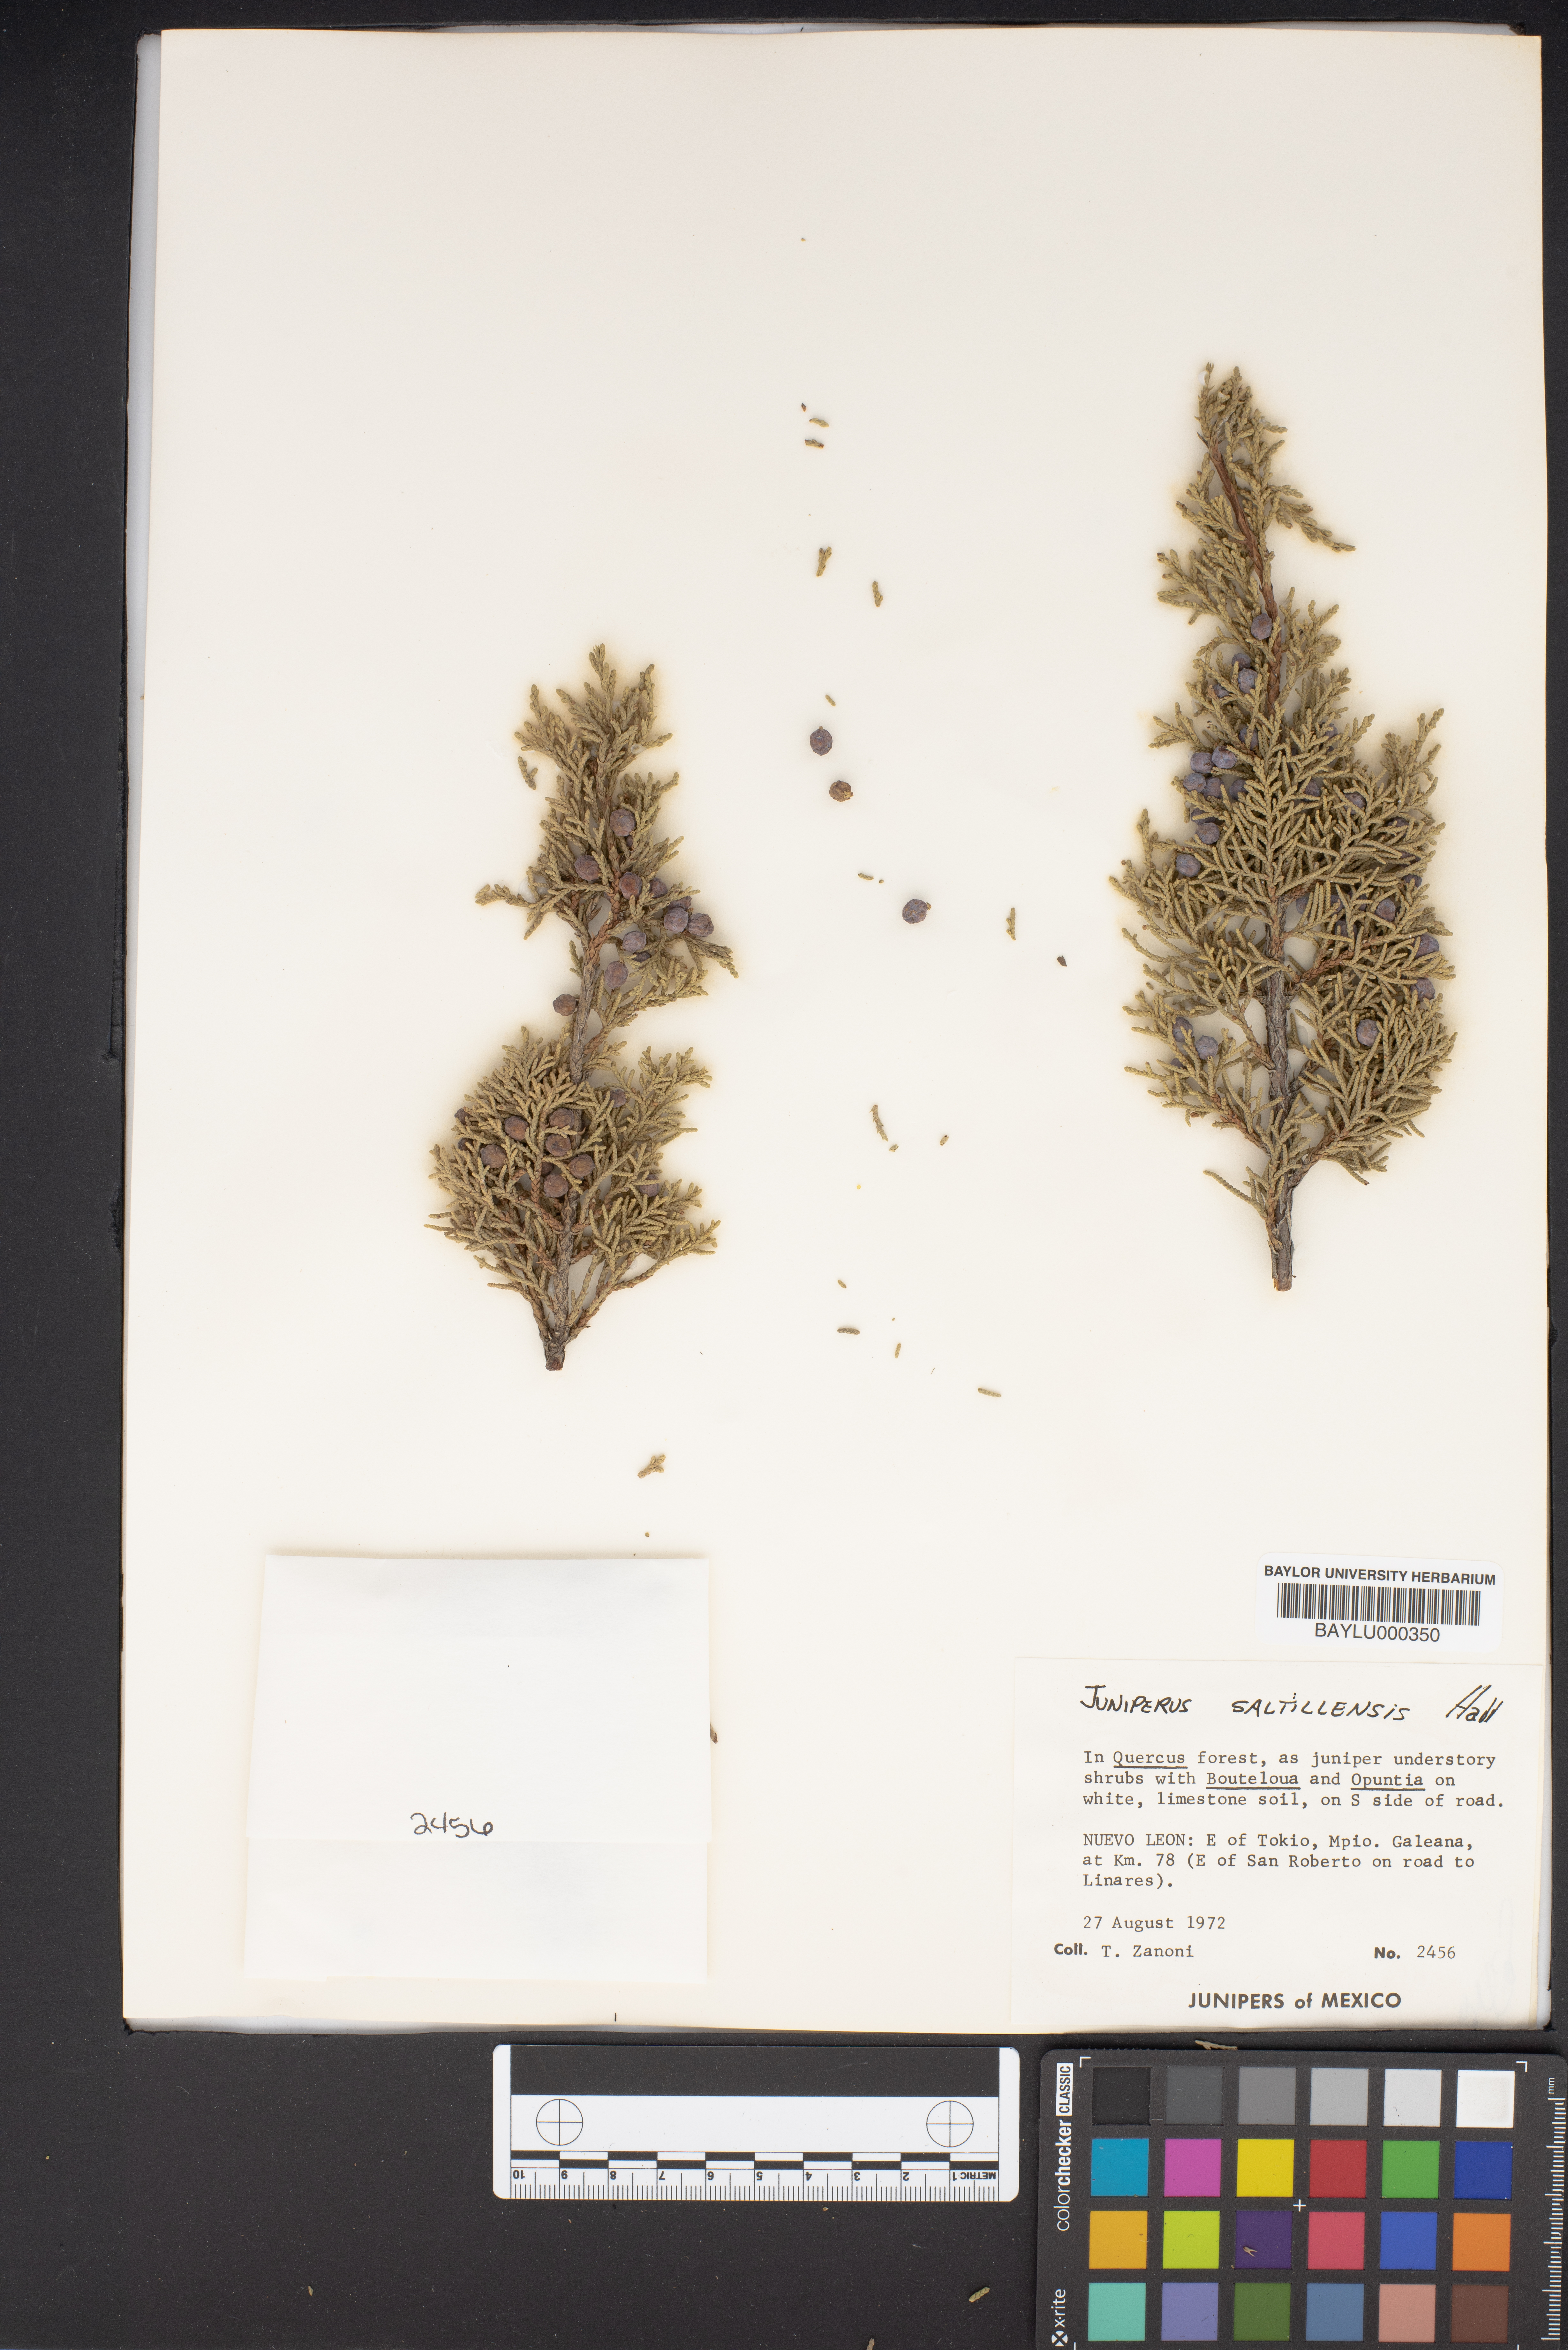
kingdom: Plantae
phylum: Tracheophyta
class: Pinopsida
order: Pinales
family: Cupressaceae
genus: Juniperus
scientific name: Juniperus saltillensis
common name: Saltillo juniper
